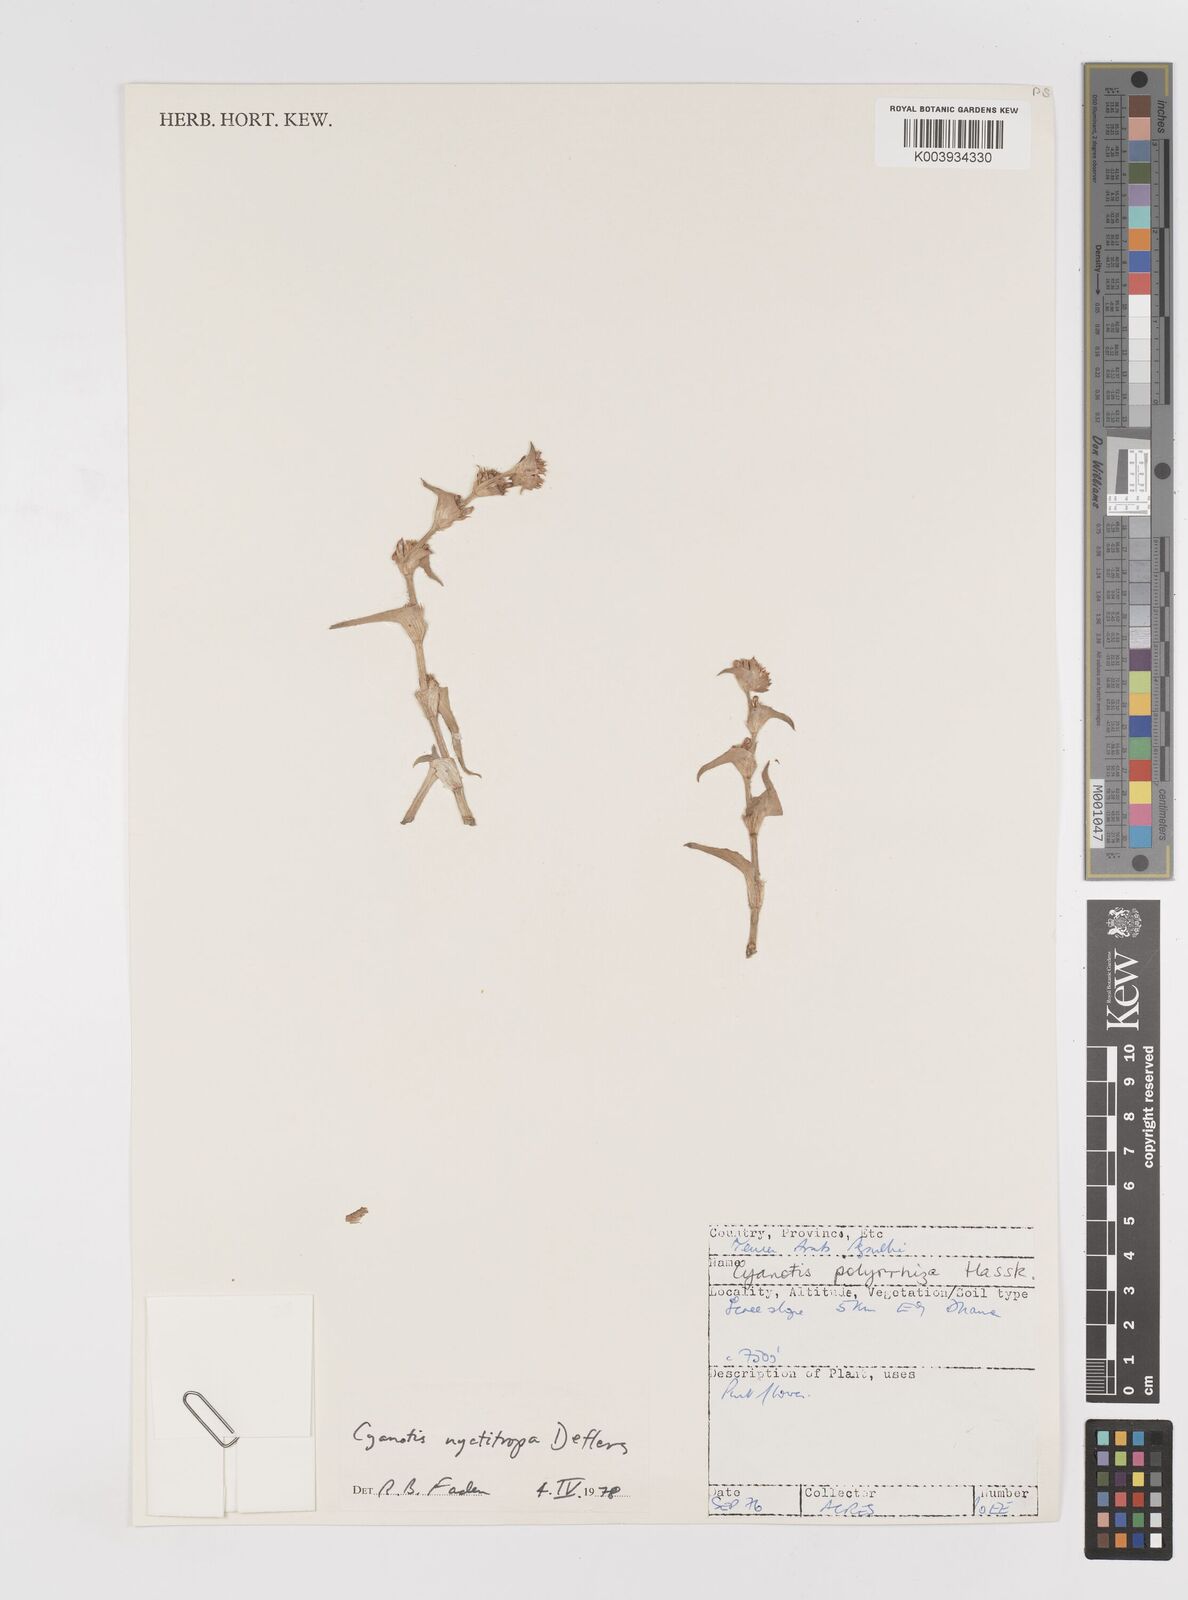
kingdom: Plantae
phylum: Tracheophyta
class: Liliopsida
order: Commelinales
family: Commelinaceae
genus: Cyanotis
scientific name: Cyanotis nyctitropa
